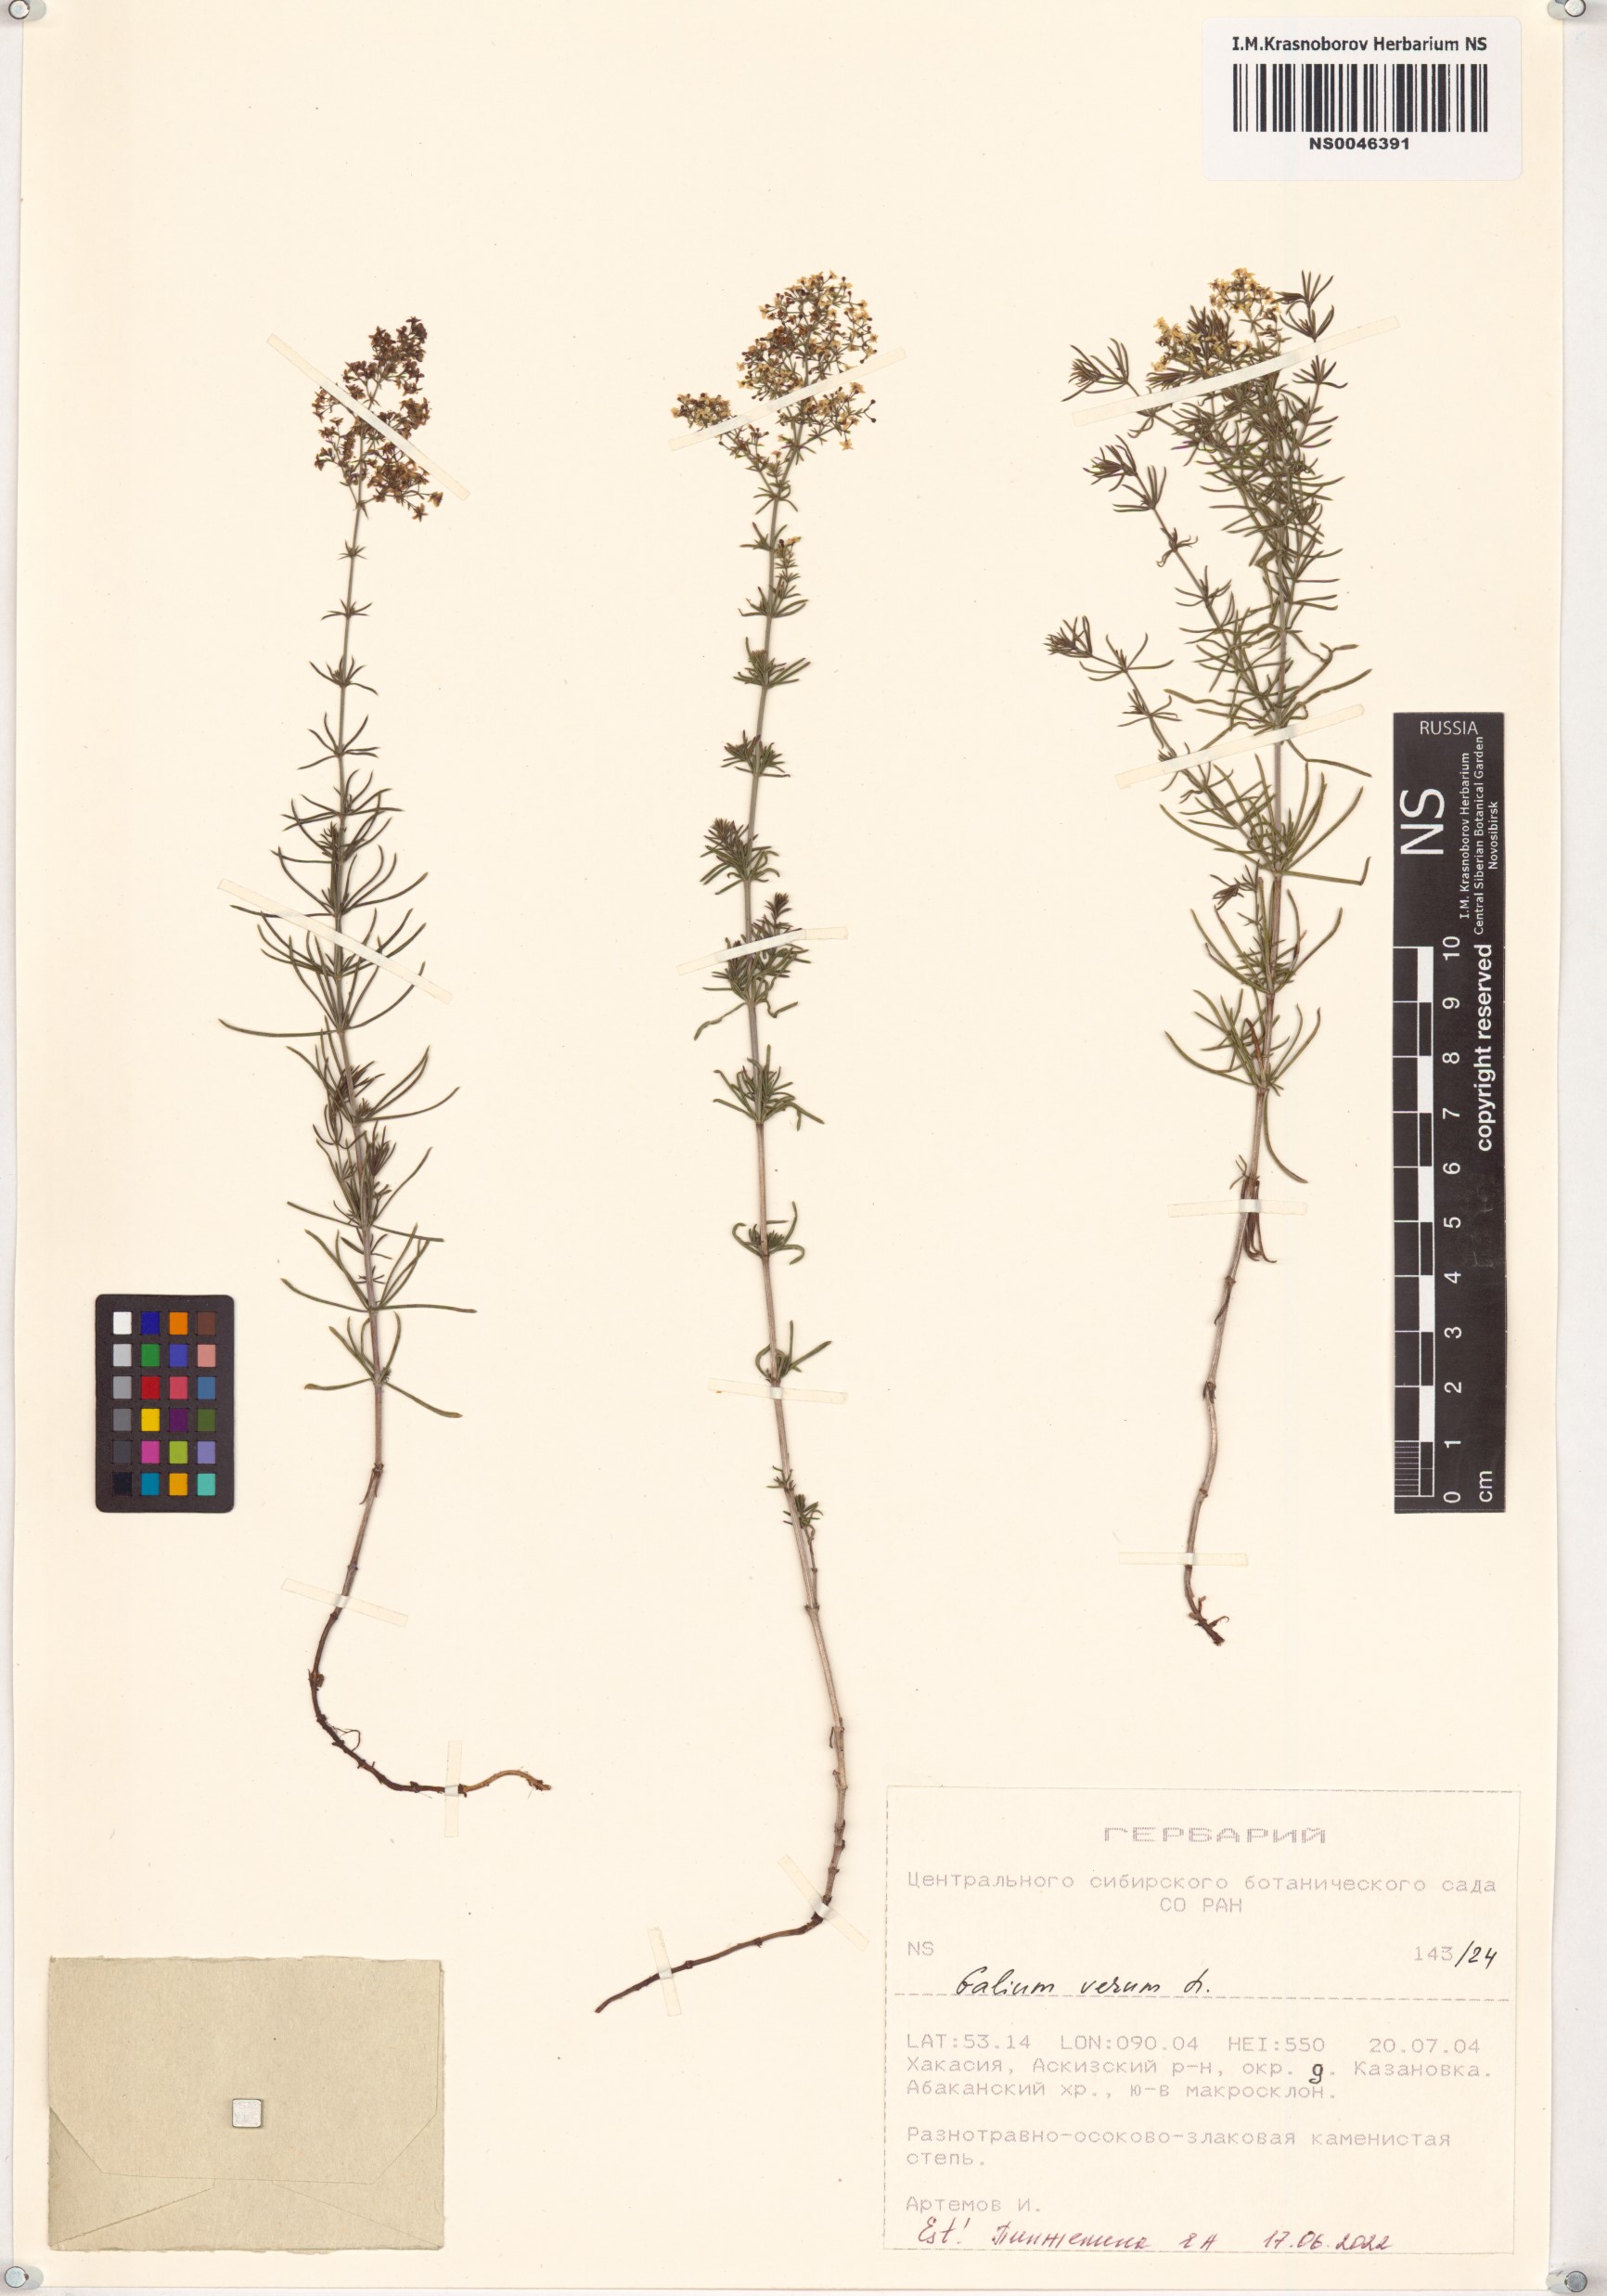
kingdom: Plantae
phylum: Tracheophyta
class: Magnoliopsida
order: Gentianales
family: Rubiaceae
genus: Galium
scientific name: Galium verum
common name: Lady's bedstraw
